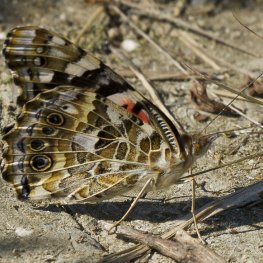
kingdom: Animalia
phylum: Arthropoda
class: Insecta
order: Lepidoptera
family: Nymphalidae
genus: Vanessa
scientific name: Vanessa cardui
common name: Painted Lady
